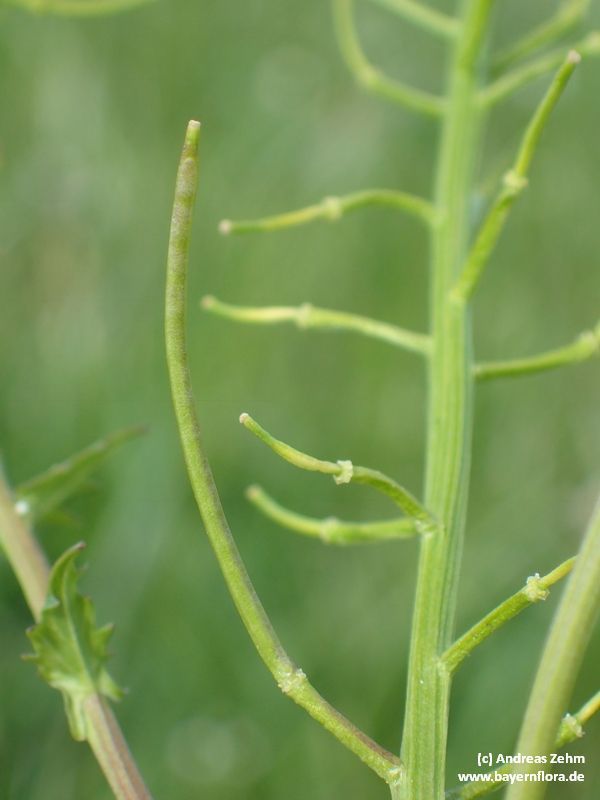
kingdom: Plantae
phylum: Tracheophyta
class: Magnoliopsida
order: Brassicales
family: Brassicaceae
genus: Barbarea
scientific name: Barbarea vulgaris
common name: Cressy-greens
